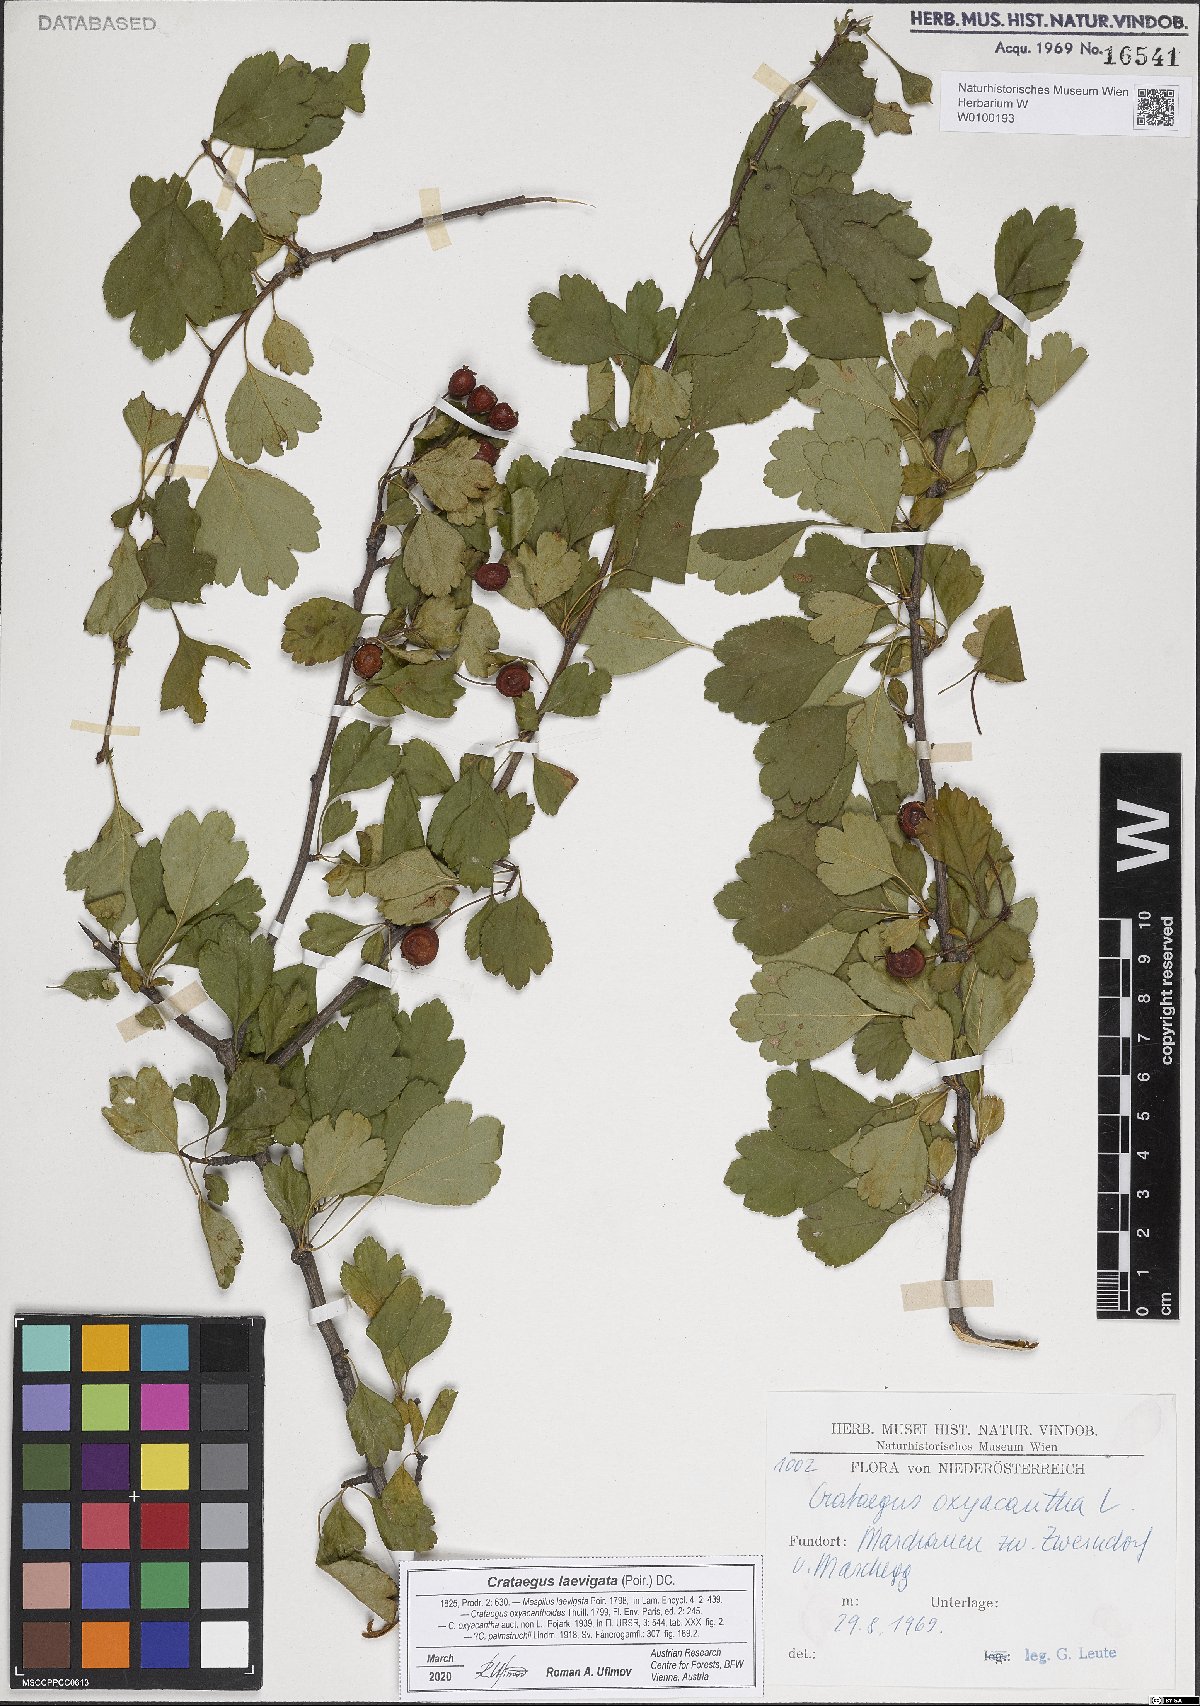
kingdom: Plantae
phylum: Tracheophyta
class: Magnoliopsida
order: Rosales
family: Rosaceae
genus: Crataegus
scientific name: Crataegus laevigata
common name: Midland hawthorn
